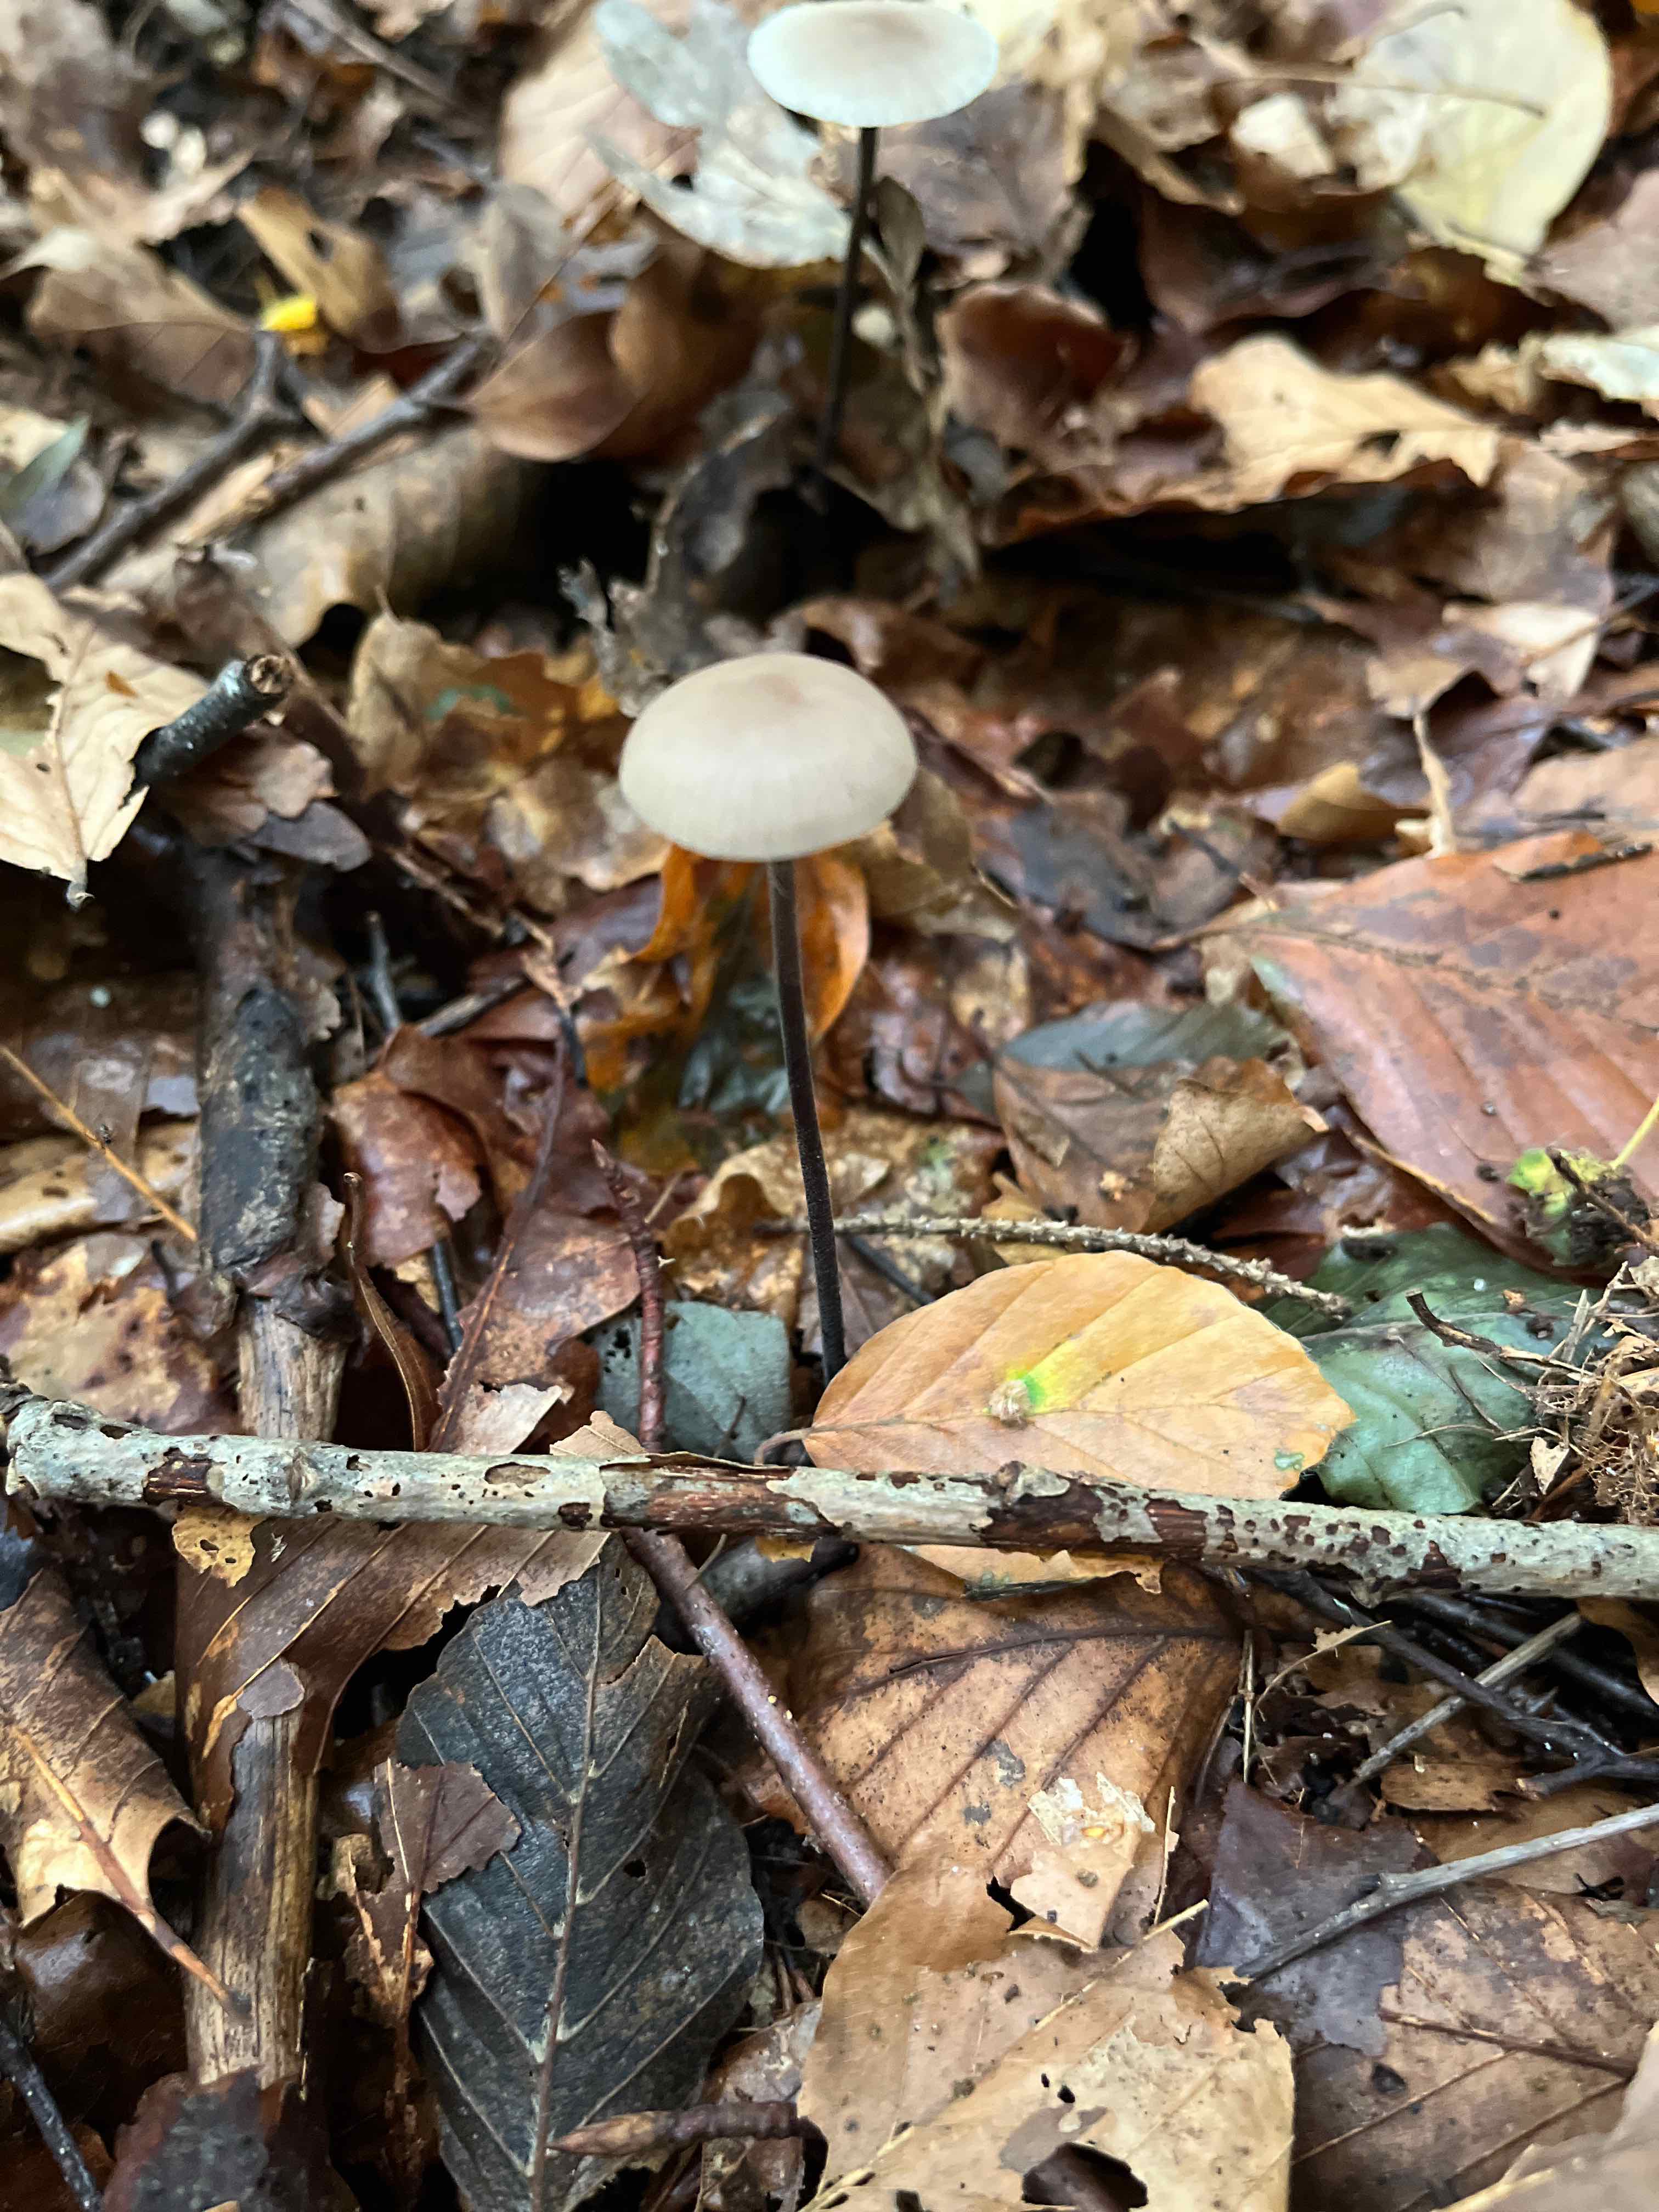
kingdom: Fungi
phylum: Basidiomycota
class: Agaricomycetes
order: Agaricales
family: Omphalotaceae
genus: Mycetinis
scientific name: Mycetinis alliaceus
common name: stor løghat
